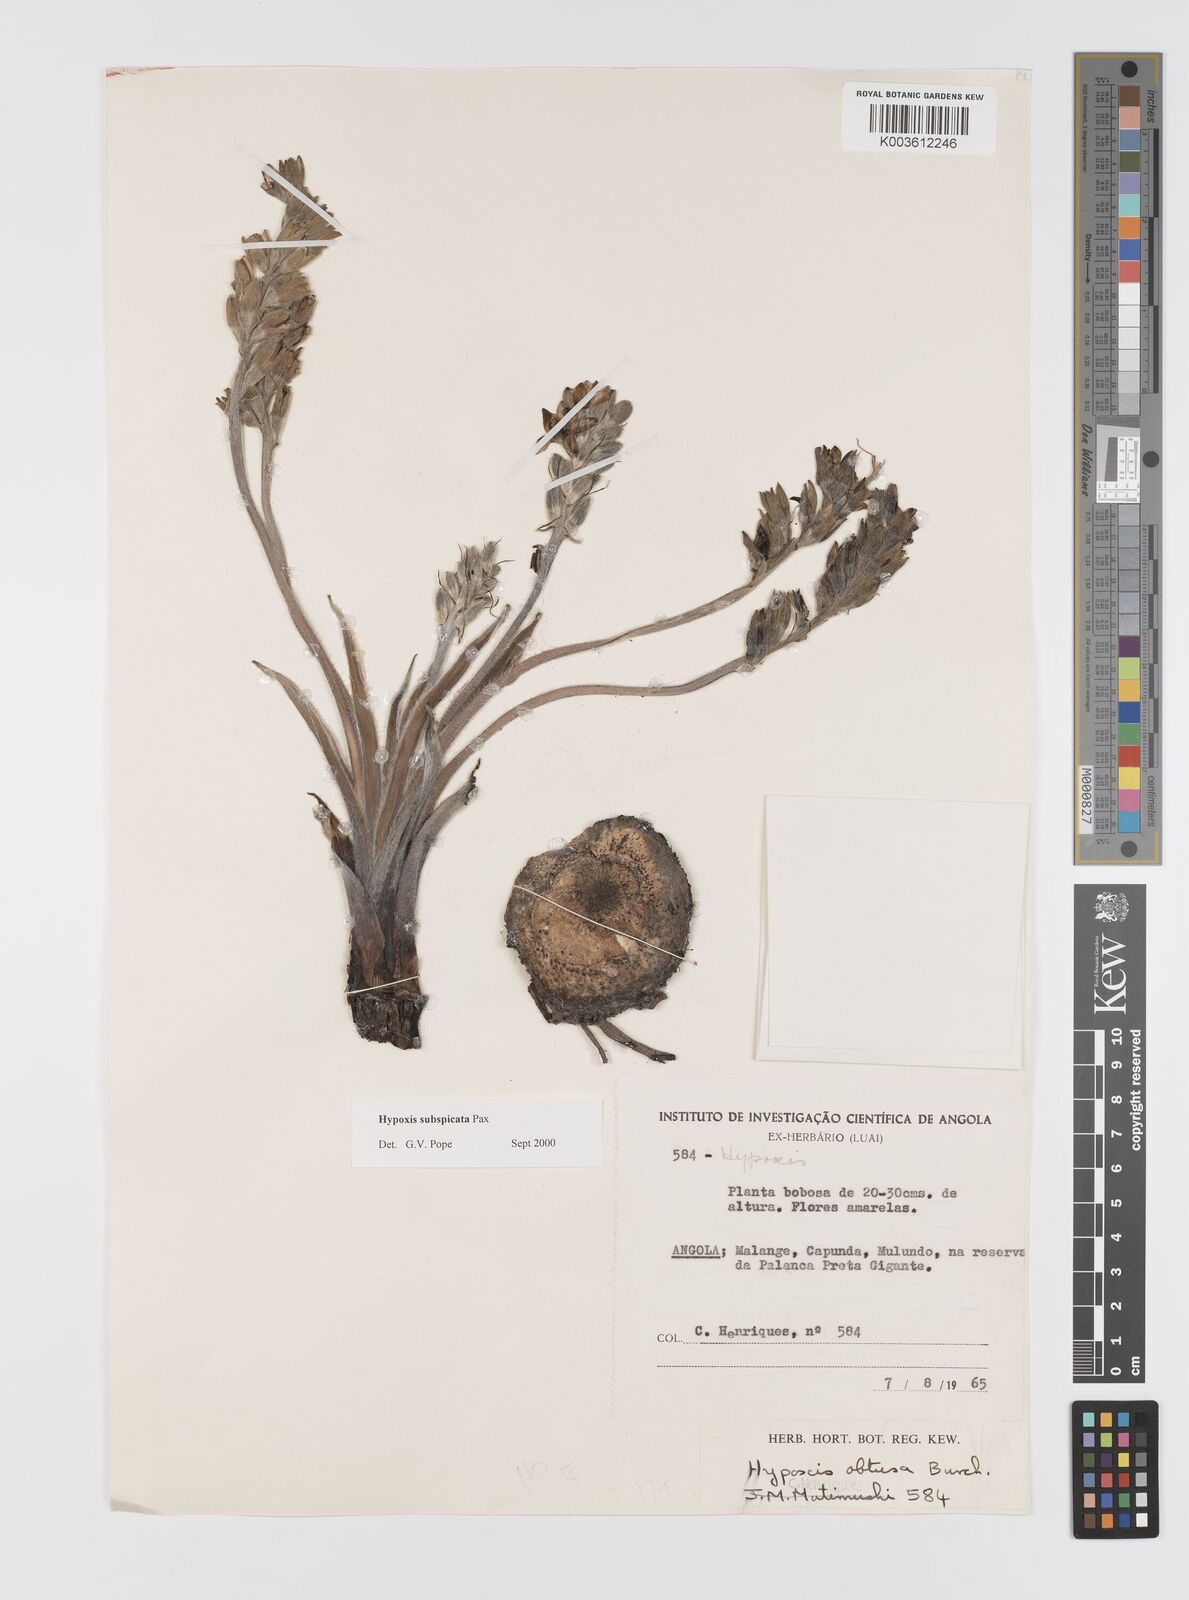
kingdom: Plantae
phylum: Tracheophyta
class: Liliopsida
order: Asparagales
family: Hypoxidaceae
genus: Hypoxis
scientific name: Hypoxis polystachya
